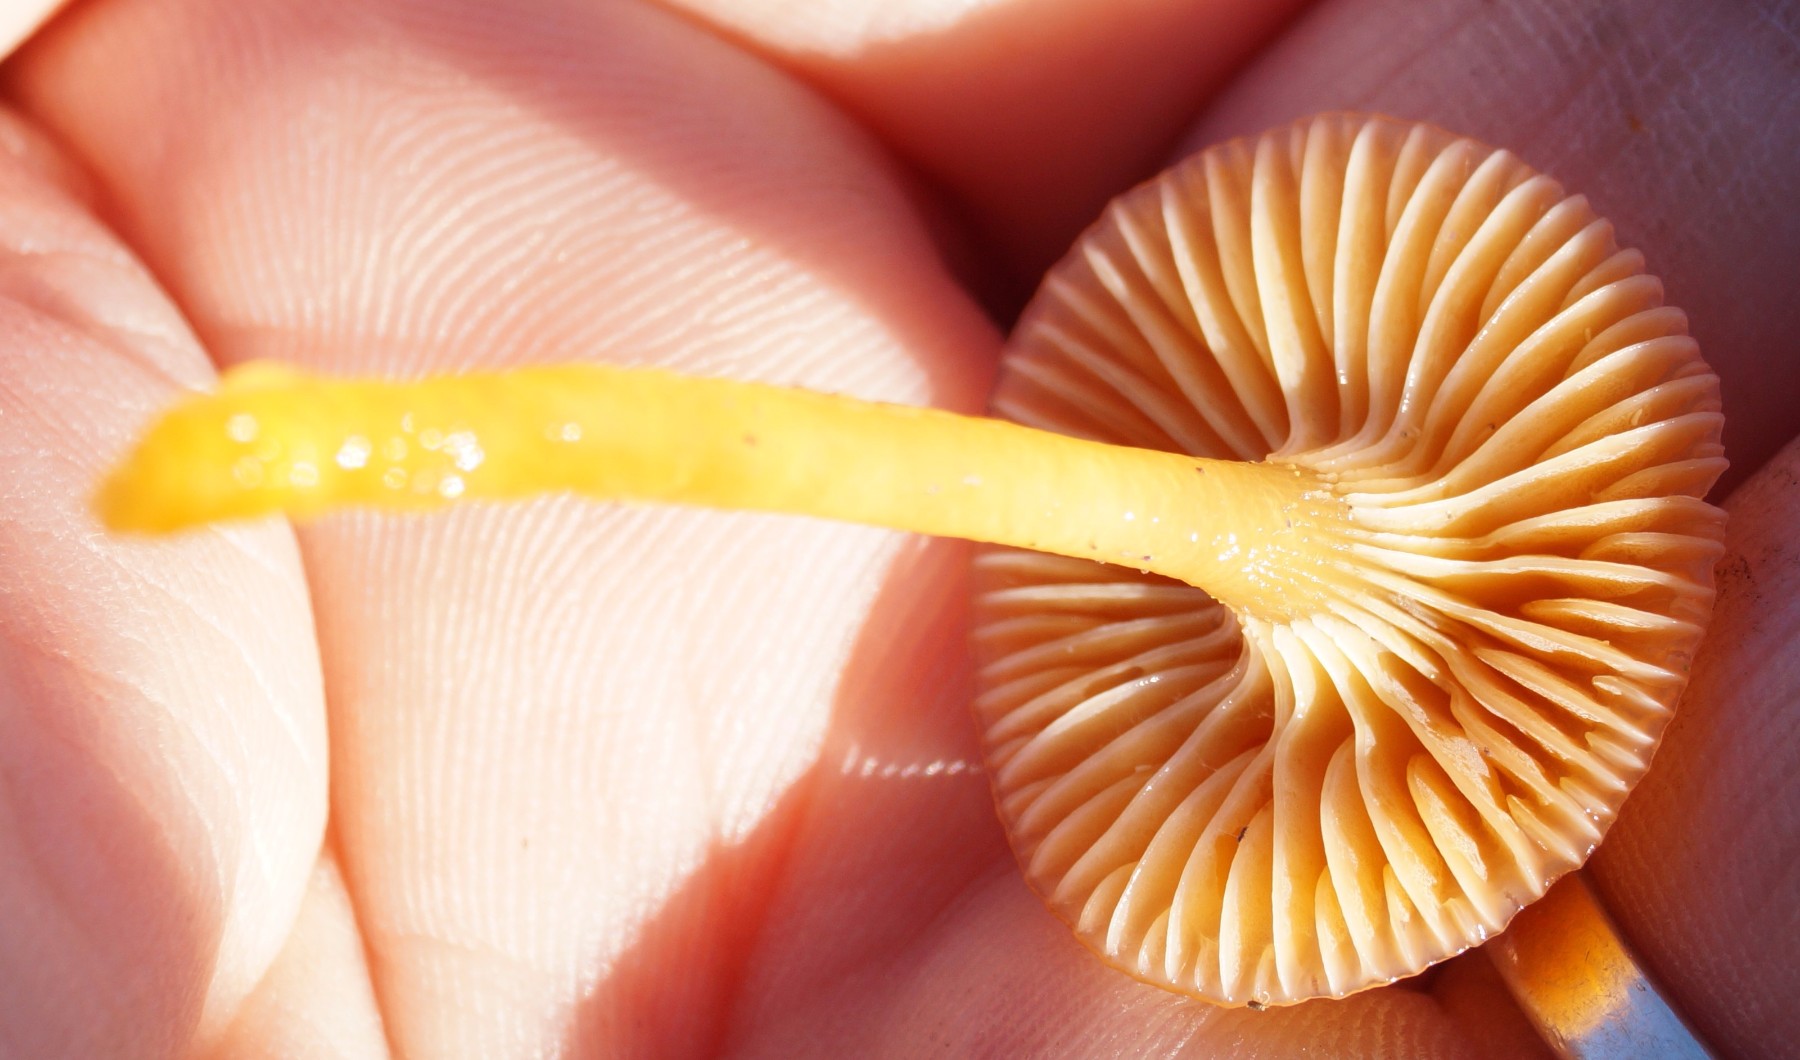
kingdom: Fungi
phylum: Basidiomycota
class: Agaricomycetes
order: Agaricales
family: Hygrophoraceae
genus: Gliophorus
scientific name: Gliophorus laetus
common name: brusk-vokshat
